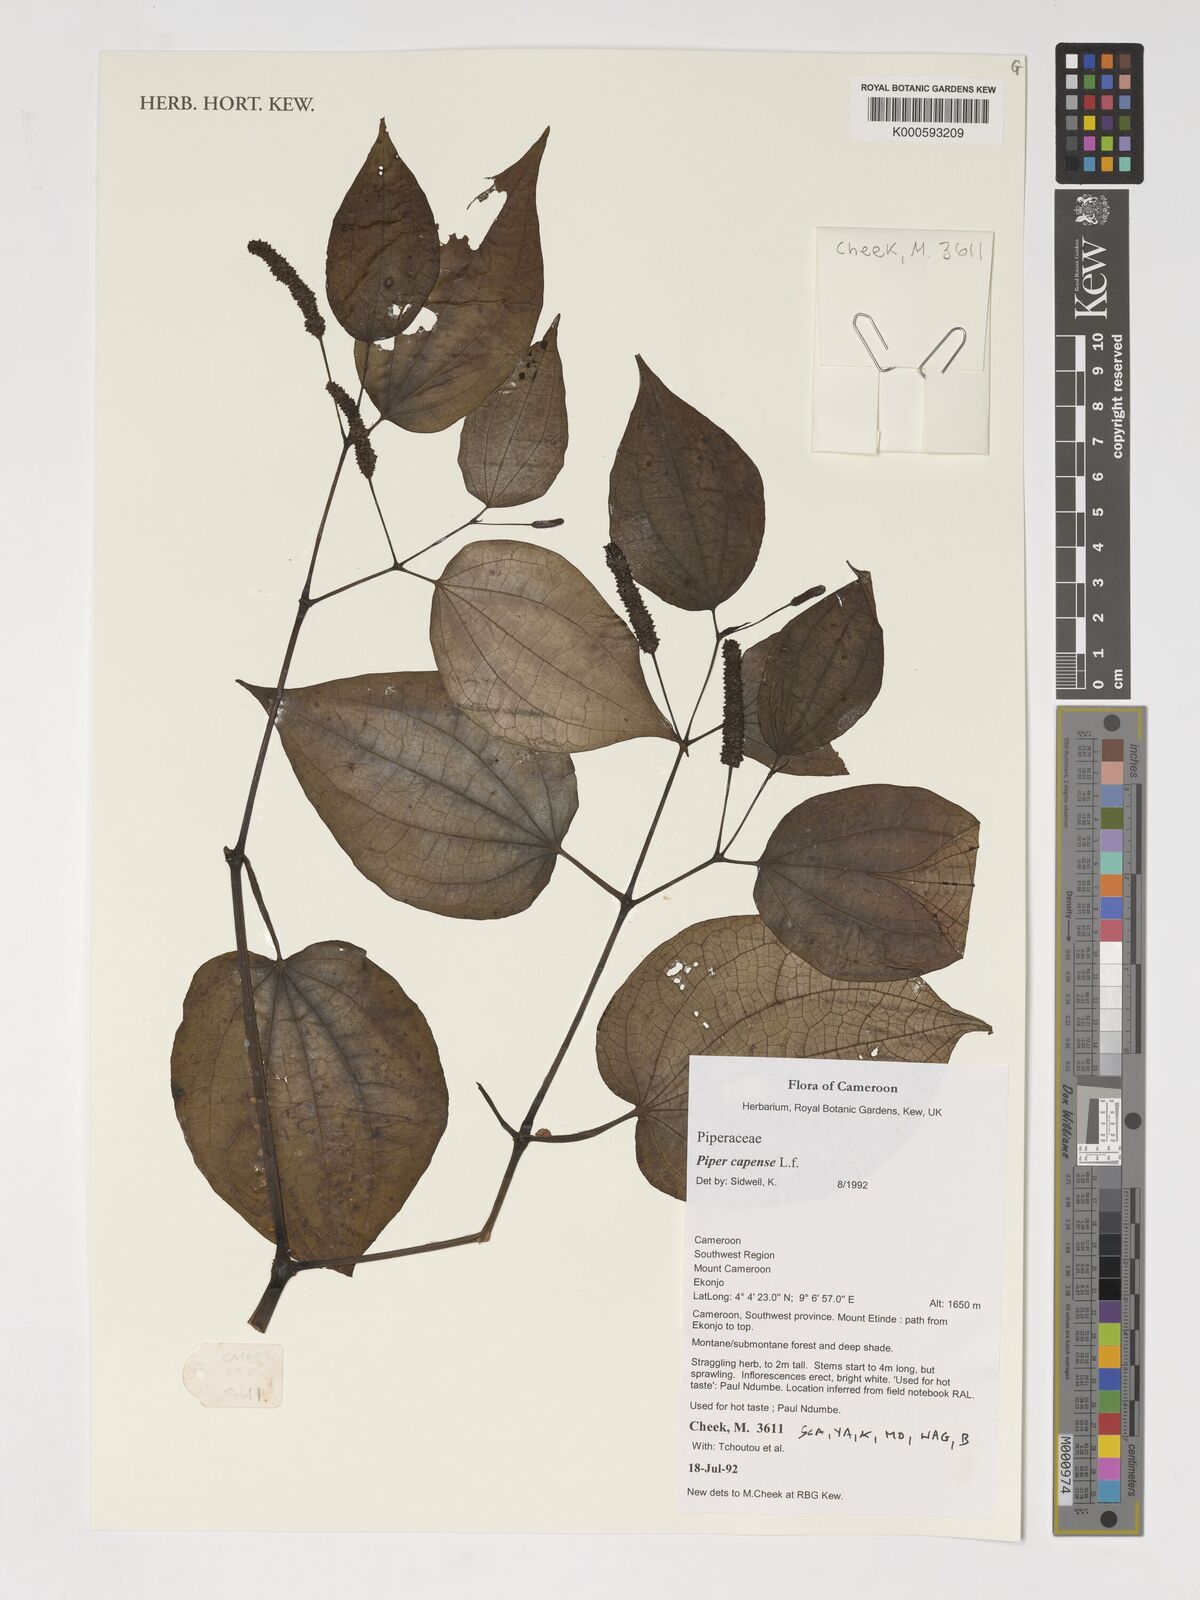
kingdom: Plantae
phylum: Tracheophyta
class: Magnoliopsida
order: Piperales
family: Piperaceae
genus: Piper
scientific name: Piper capense
